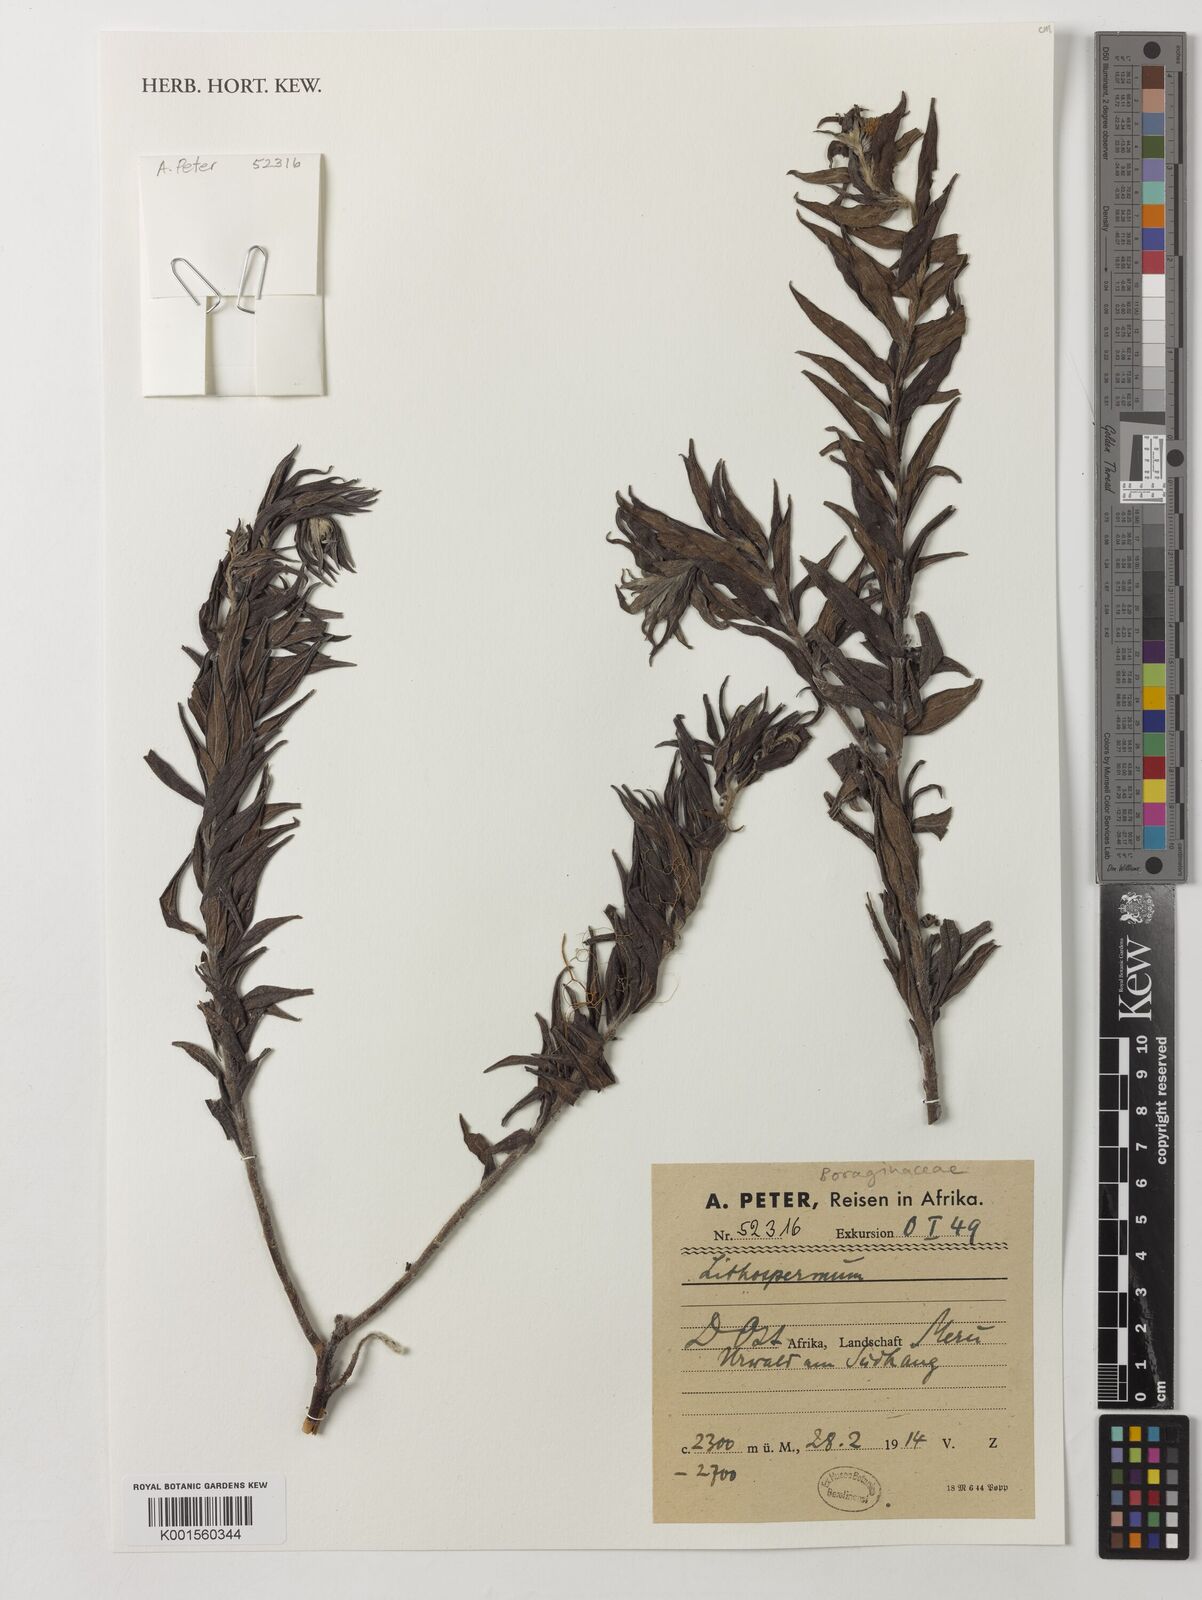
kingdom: Plantae
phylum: Tracheophyta
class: Magnoliopsida
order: Boraginales
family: Boraginaceae
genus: Lithospermum
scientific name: Lithospermum
